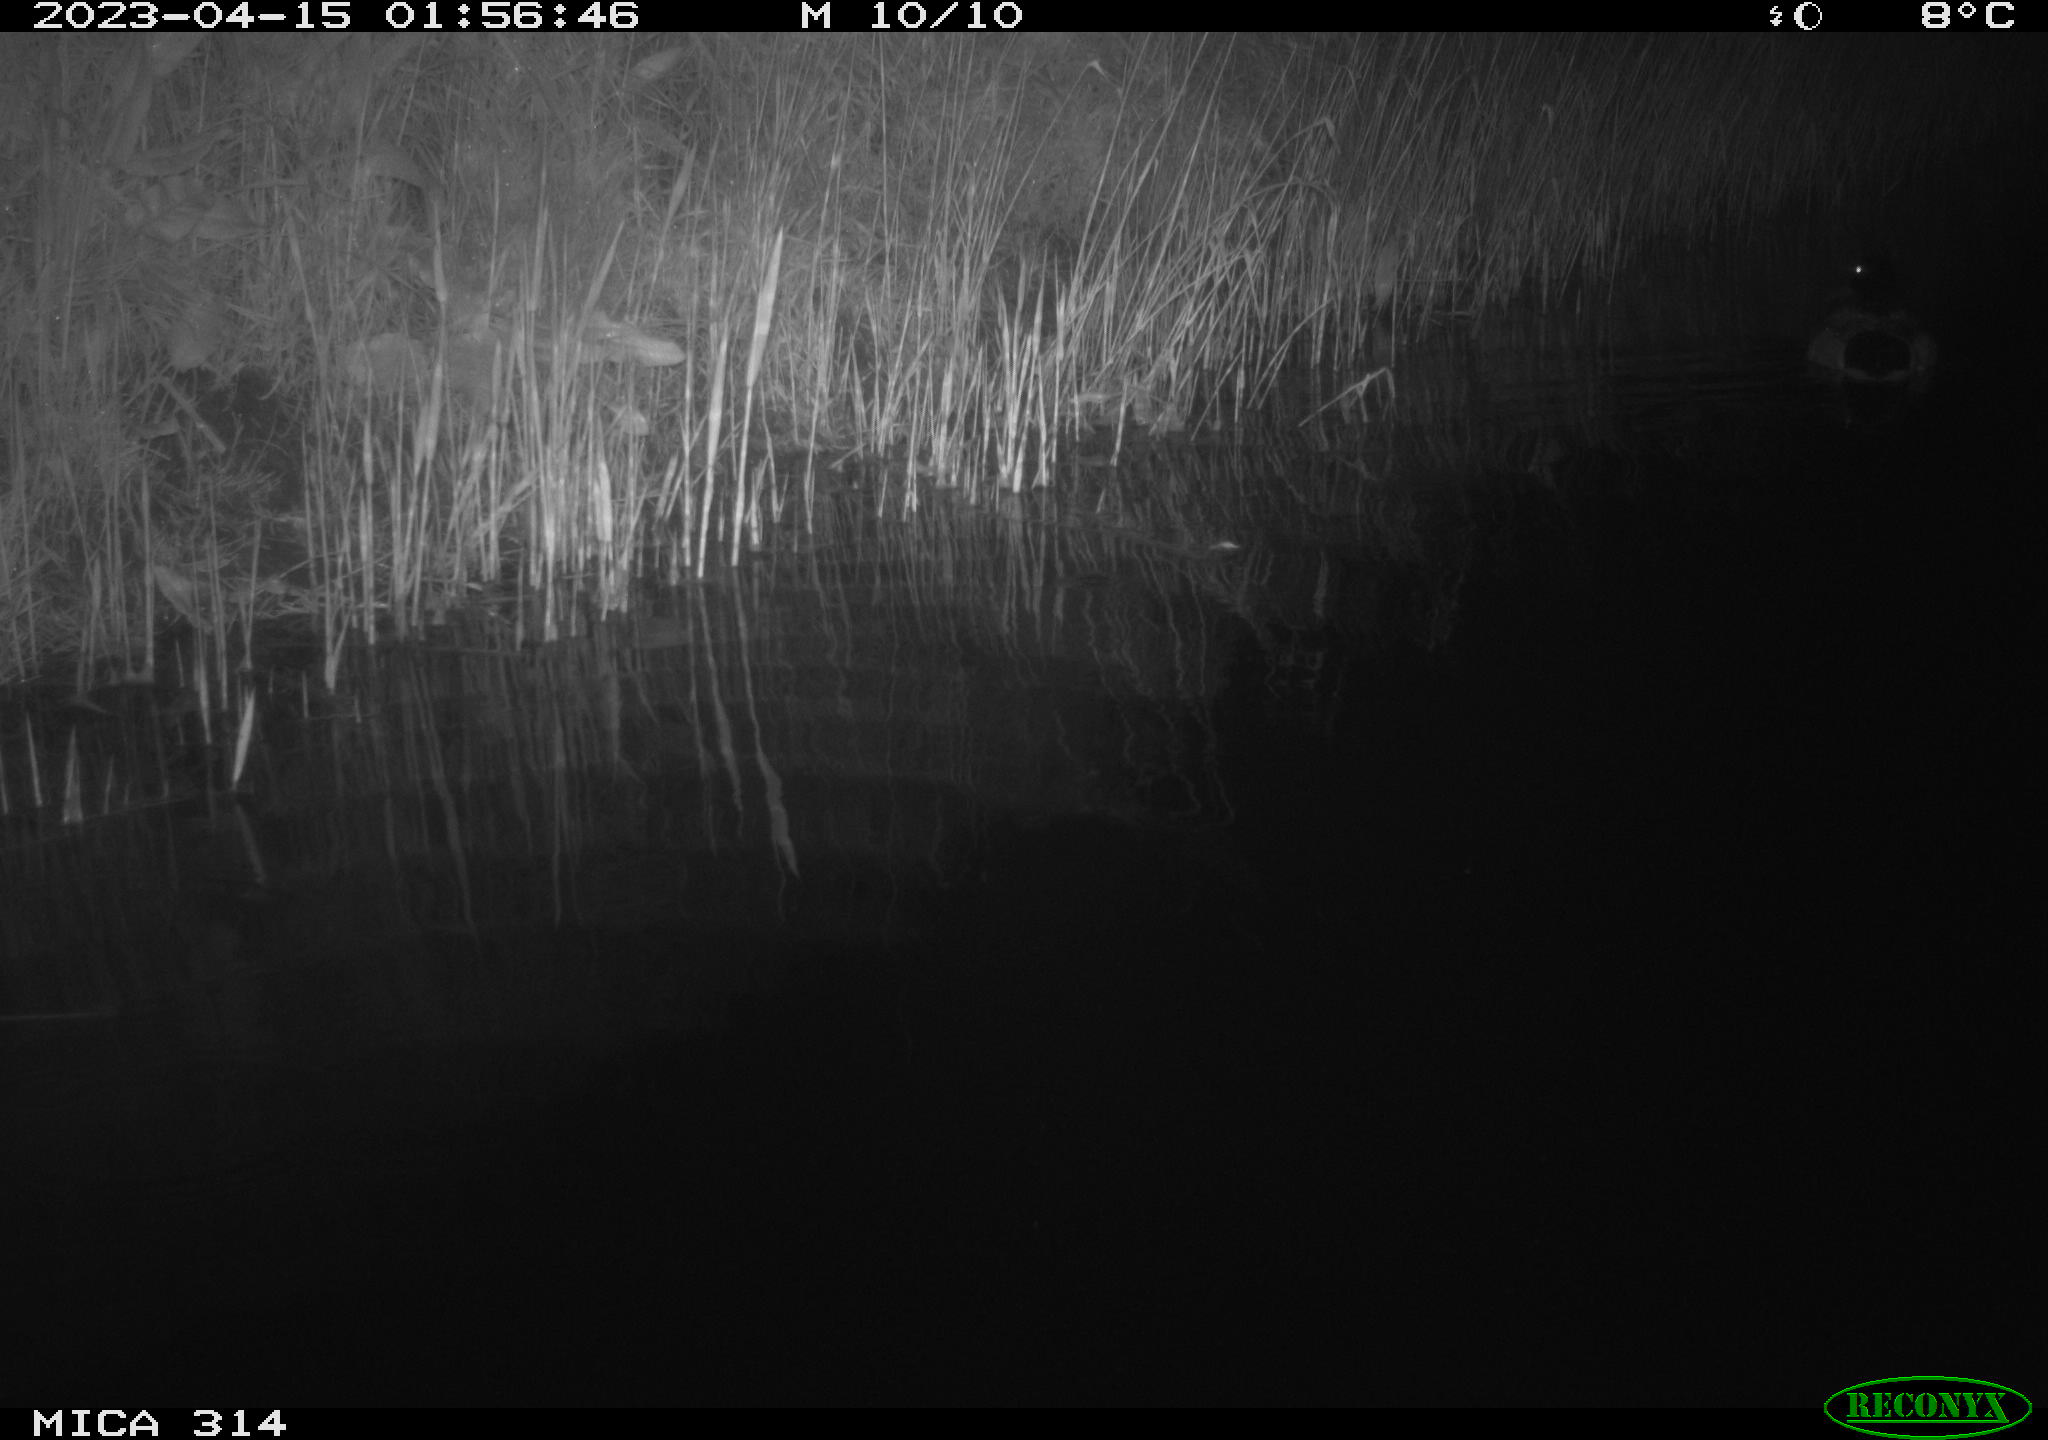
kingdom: Animalia
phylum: Chordata
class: Aves
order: Anseriformes
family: Anatidae
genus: Anas
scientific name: Anas
